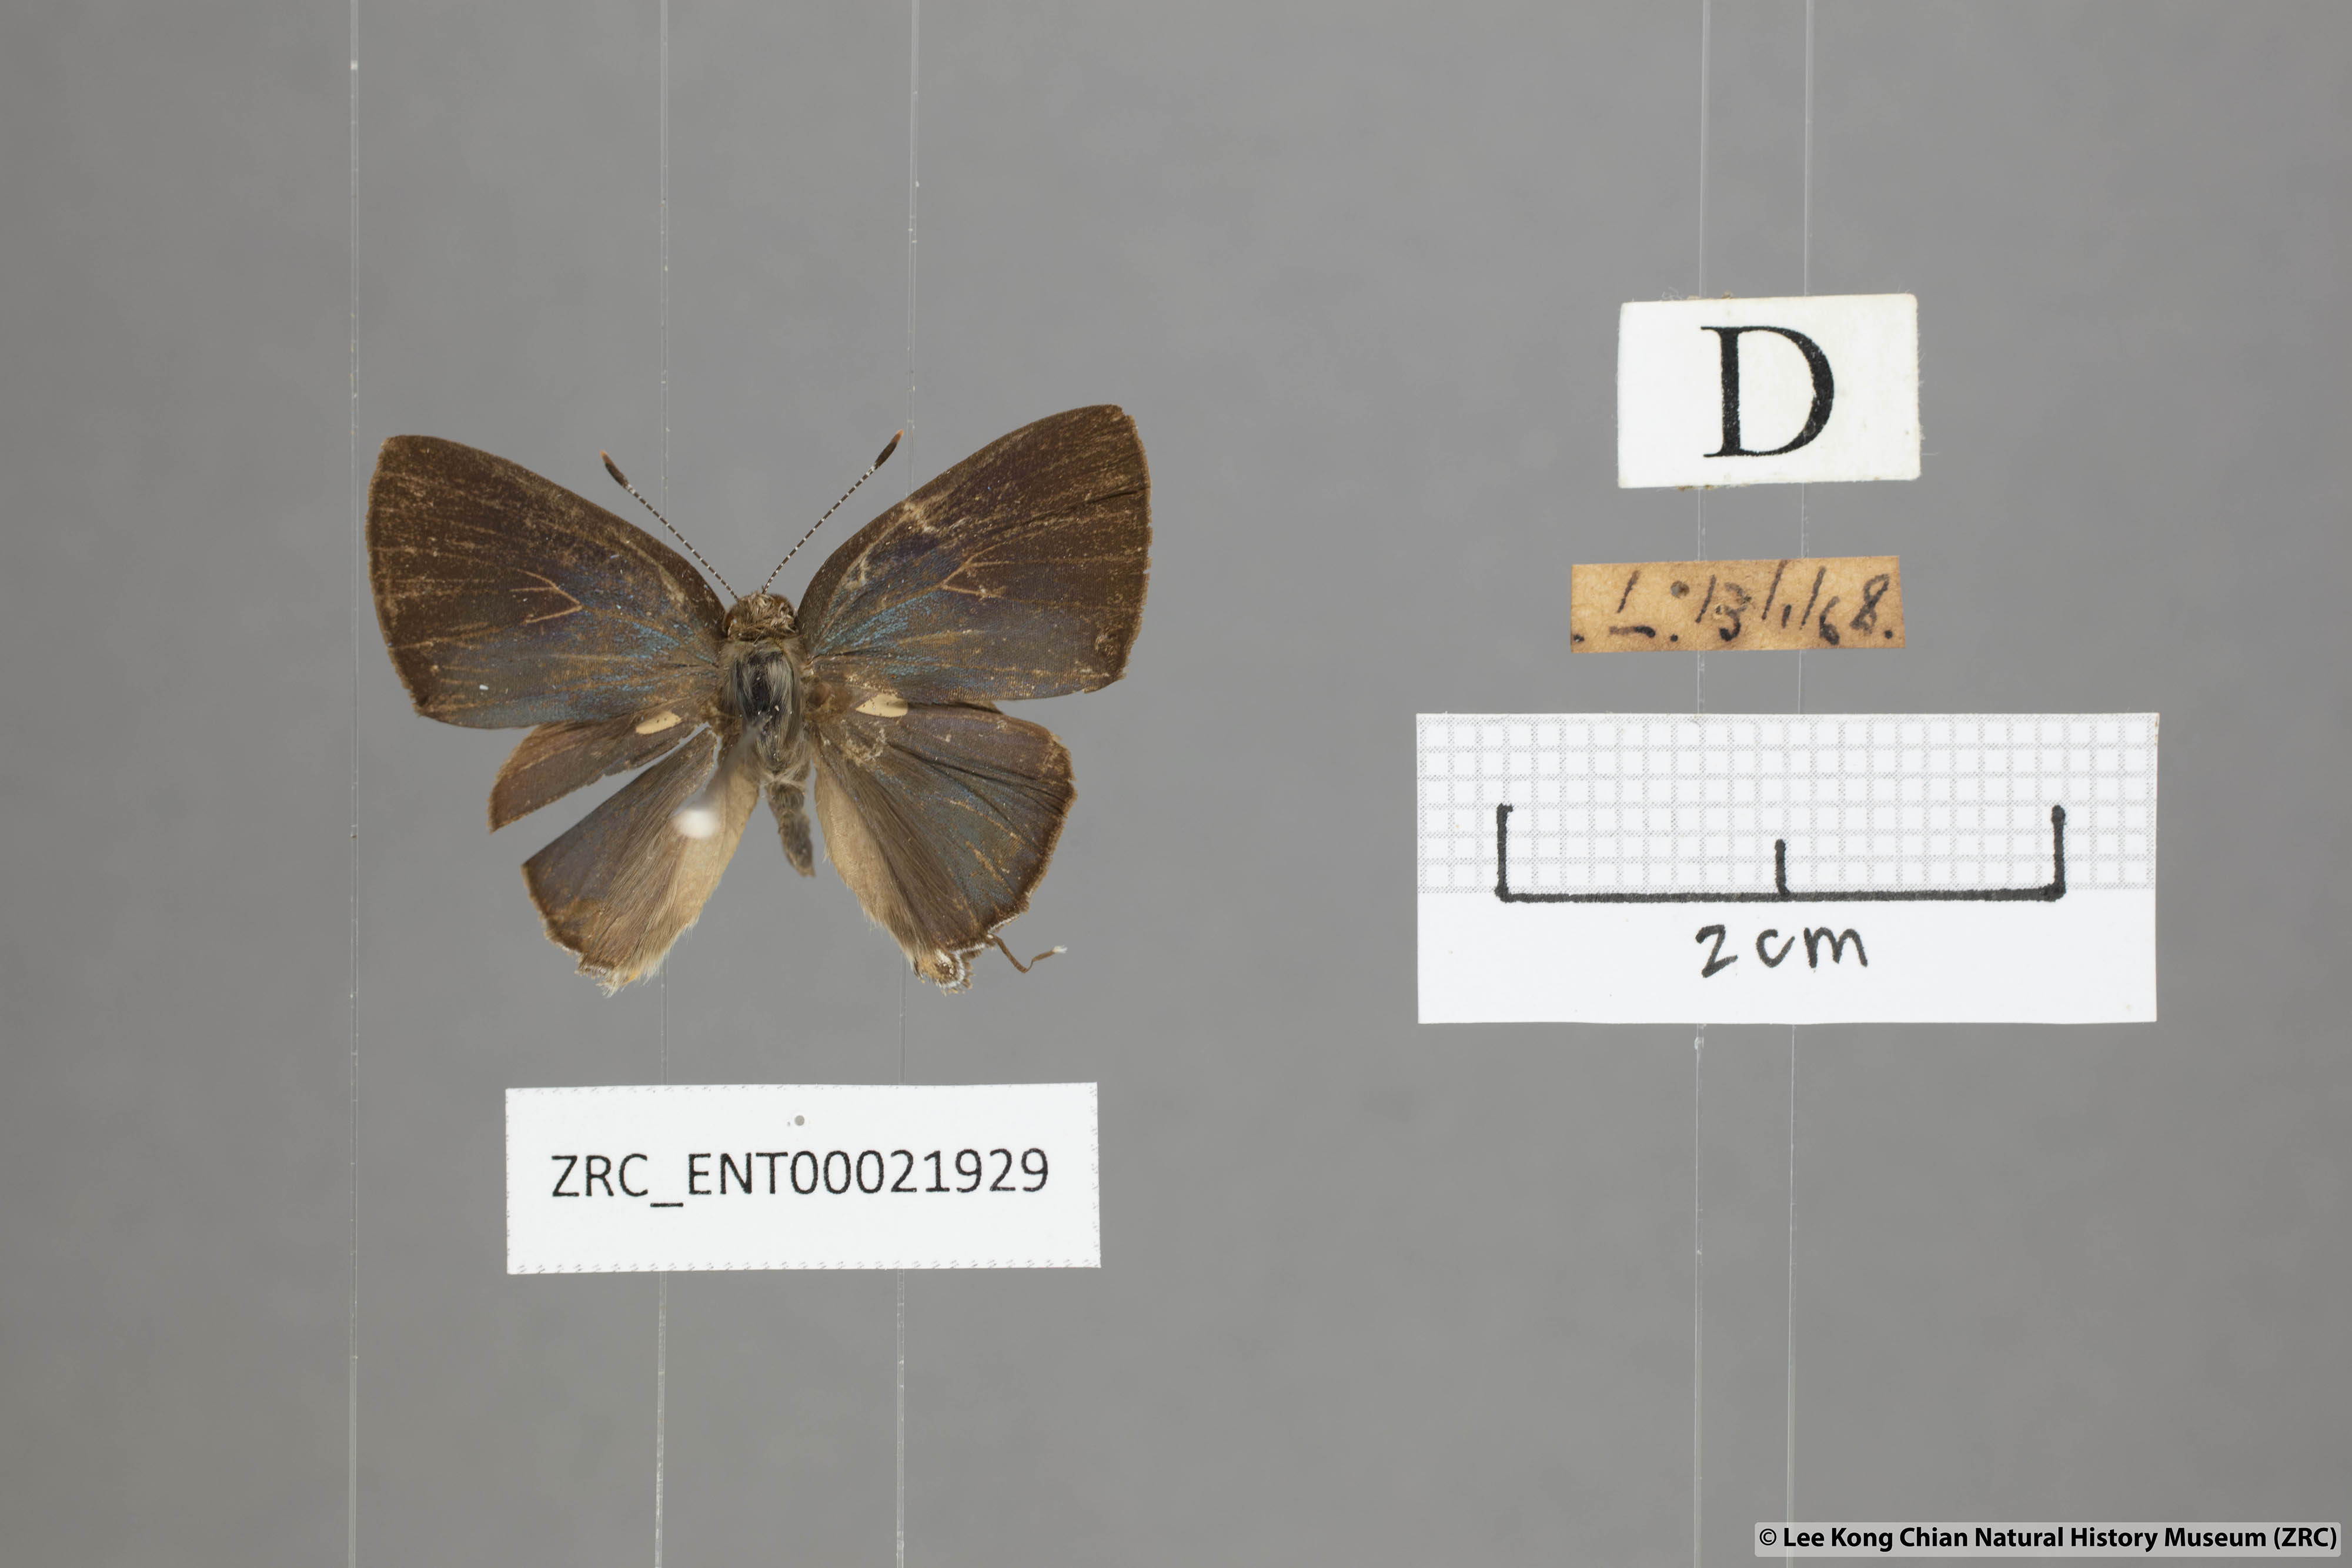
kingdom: Animalia
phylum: Arthropoda
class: Insecta
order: Lepidoptera
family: Lycaenidae
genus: Rapala
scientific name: Rapala varuna
